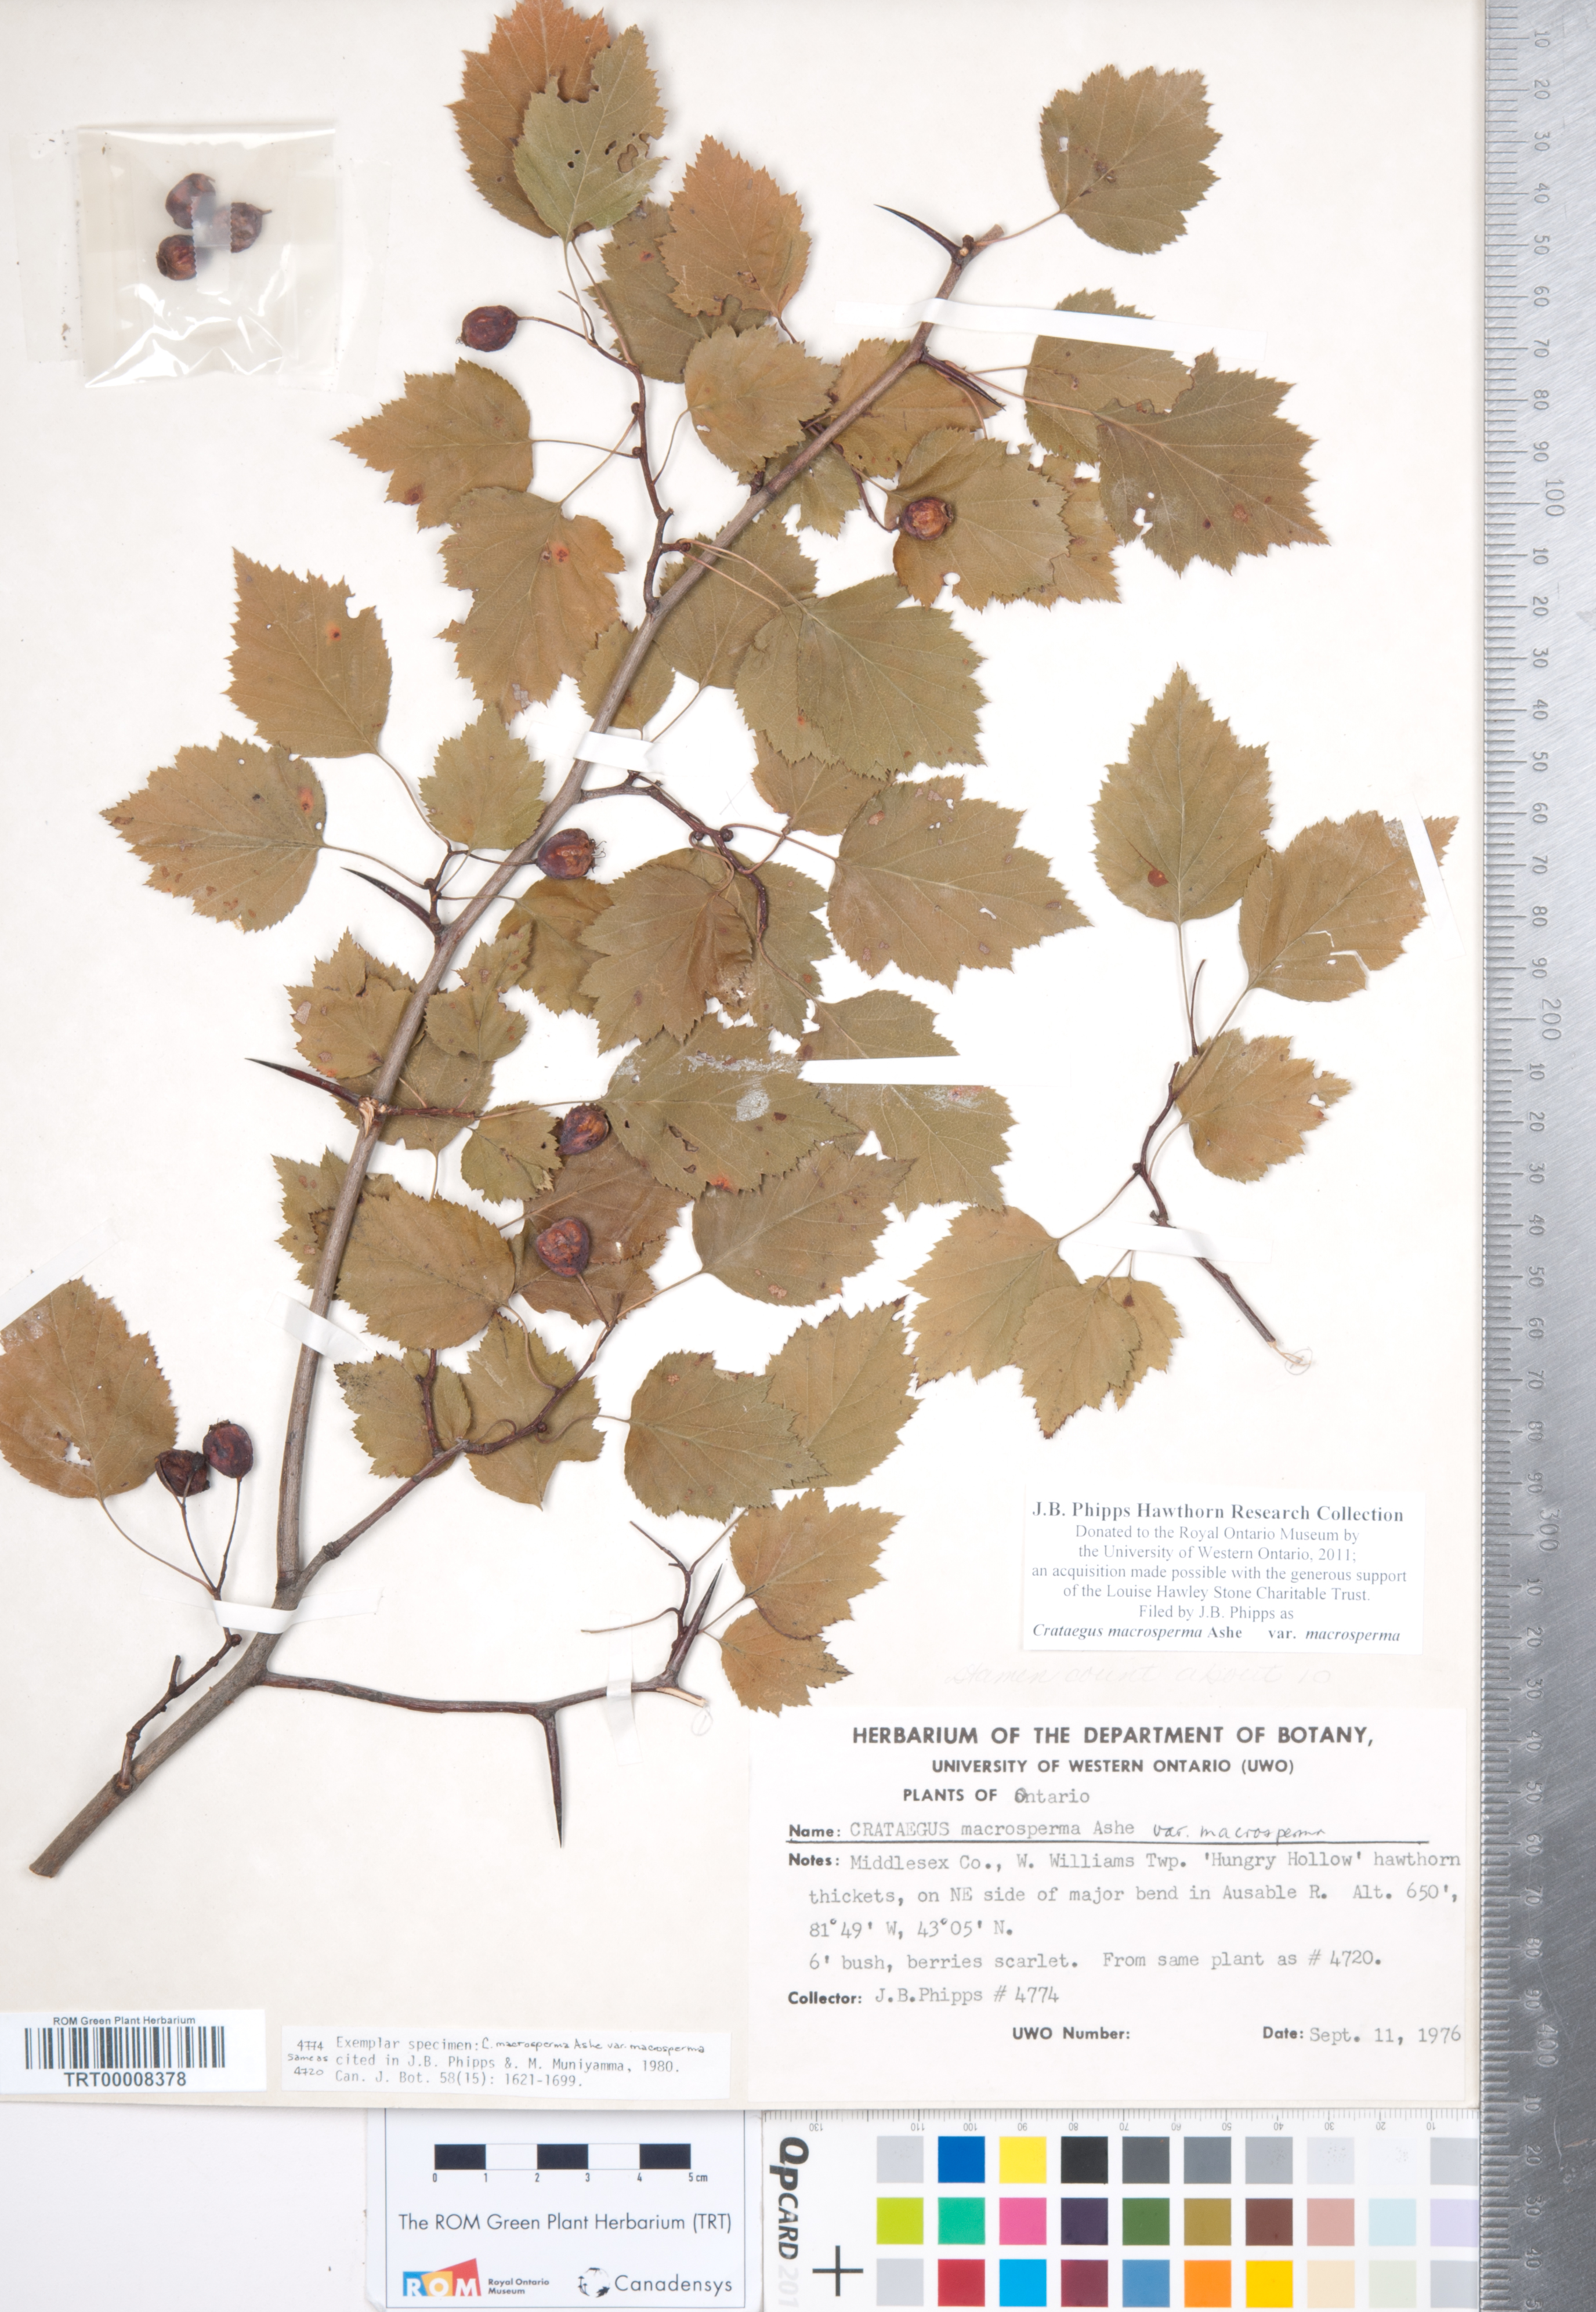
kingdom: Plantae
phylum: Tracheophyta
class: Magnoliopsida
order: Rosales
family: Rosaceae
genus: Crataegus
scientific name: Crataegus macrosperma
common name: Variable hawthorn
